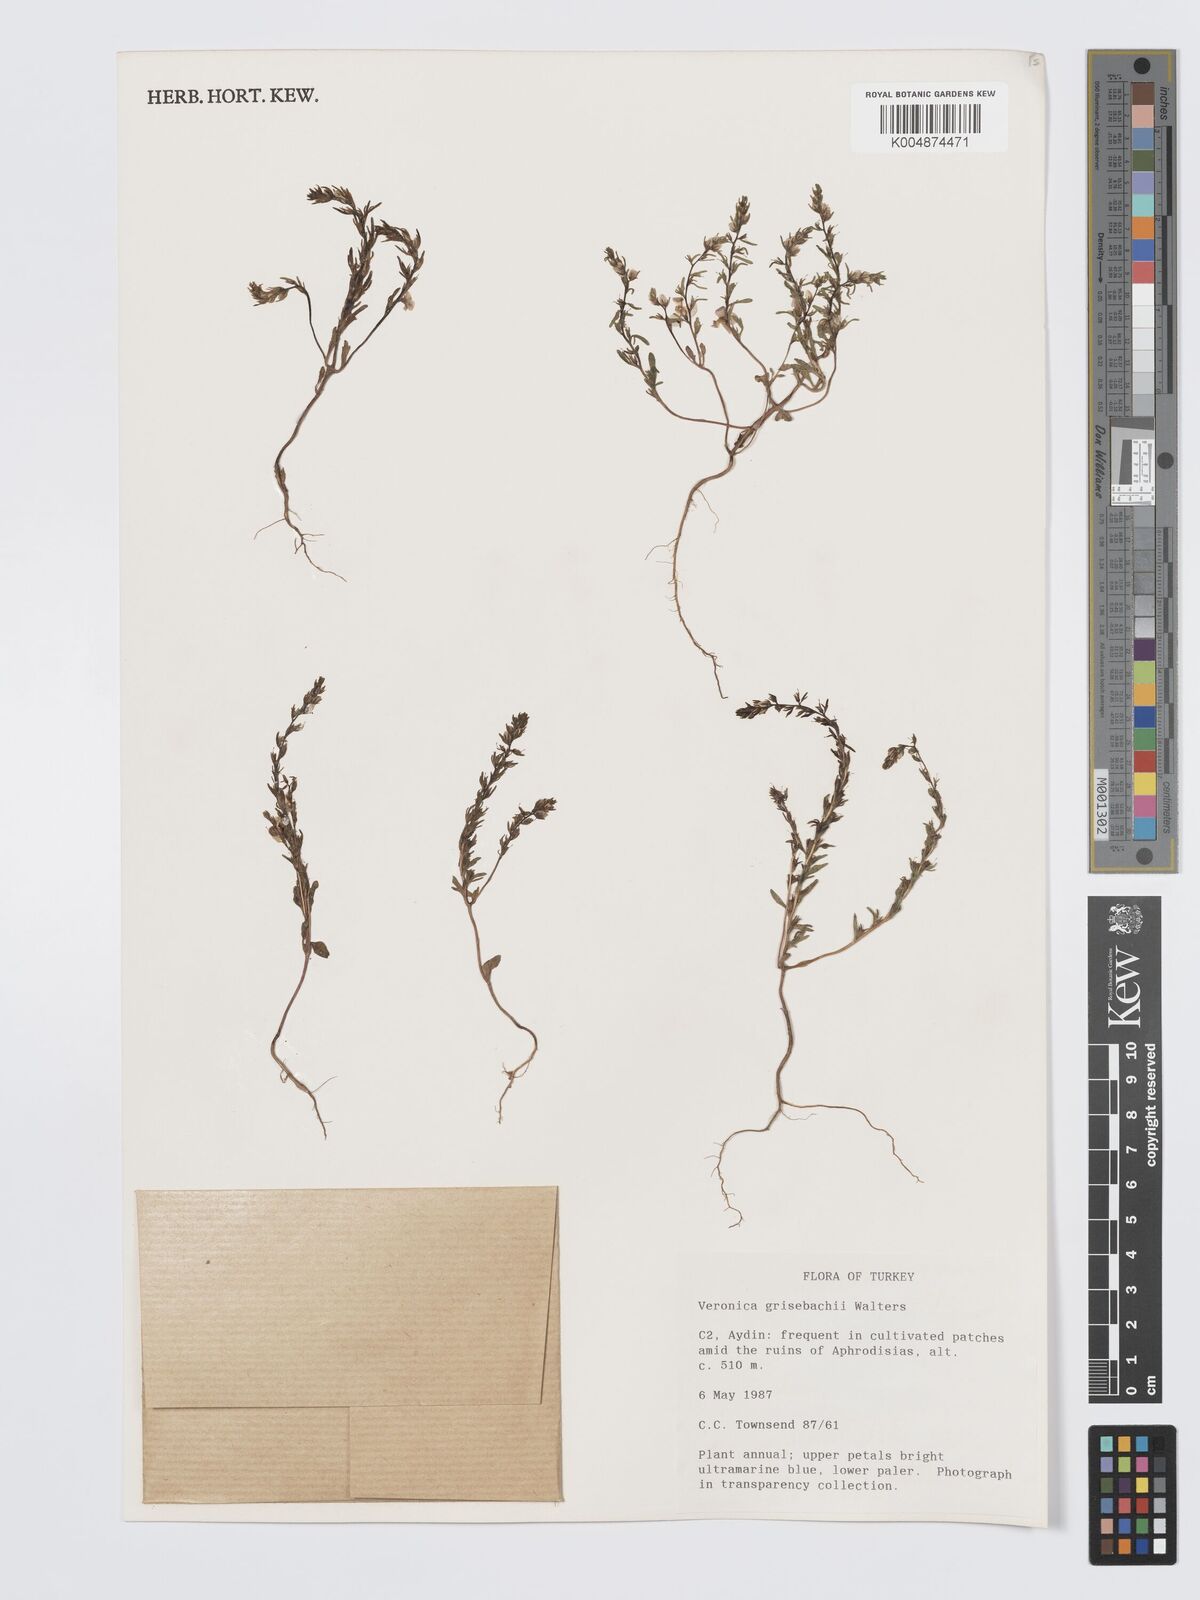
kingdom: Plantae
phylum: Tracheophyta
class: Magnoliopsida
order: Lamiales
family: Plantaginaceae
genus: Veronica
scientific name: Veronica grisebachii
